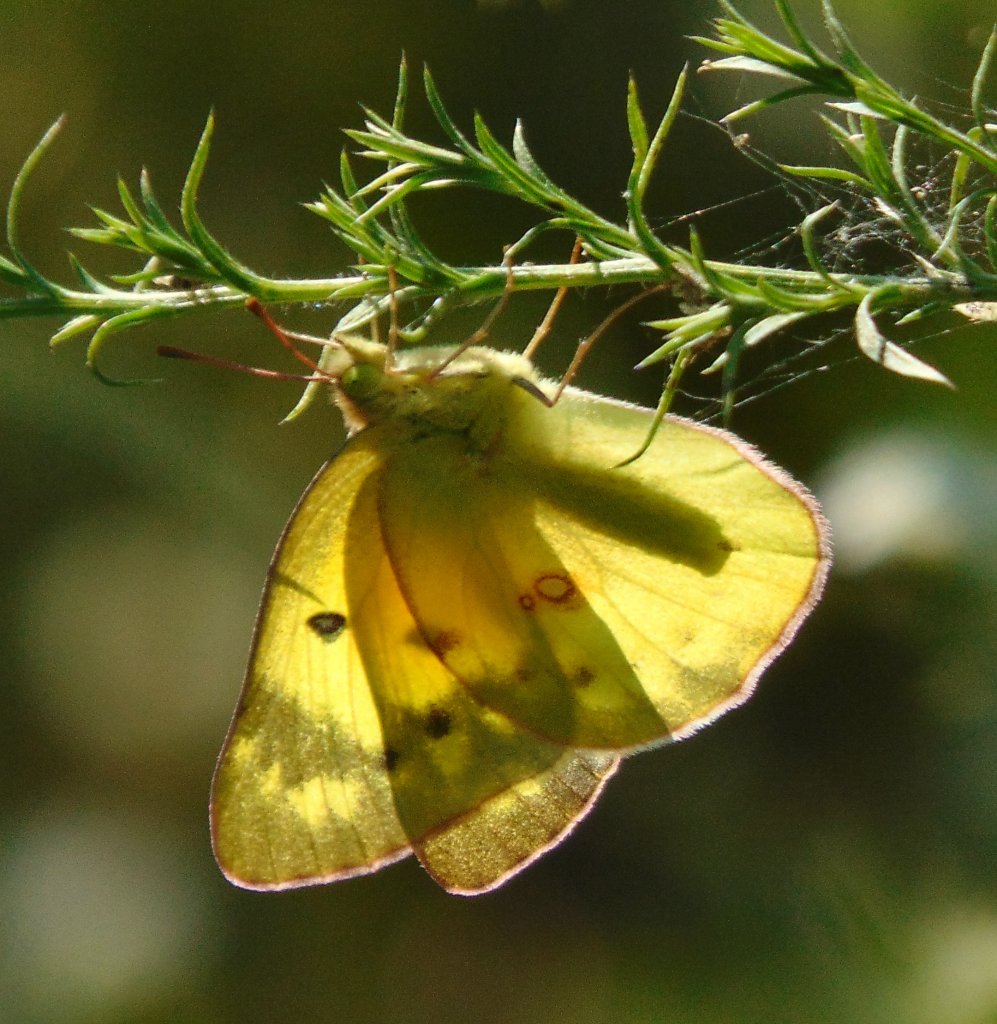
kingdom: Animalia
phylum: Arthropoda
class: Insecta
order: Lepidoptera
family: Pieridae
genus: Colias
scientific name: Colias philodice
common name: Clouded Sulphur
